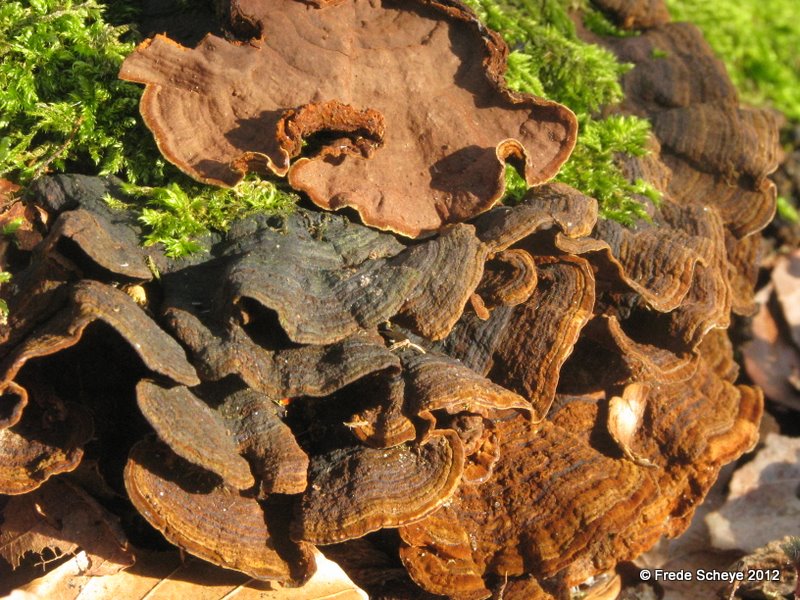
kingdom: Fungi
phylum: Basidiomycota
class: Agaricomycetes
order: Hymenochaetales
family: Hymenochaetaceae
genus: Hymenochaete
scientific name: Hymenochaete rubiginosa
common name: stiv ruslædersvamp
